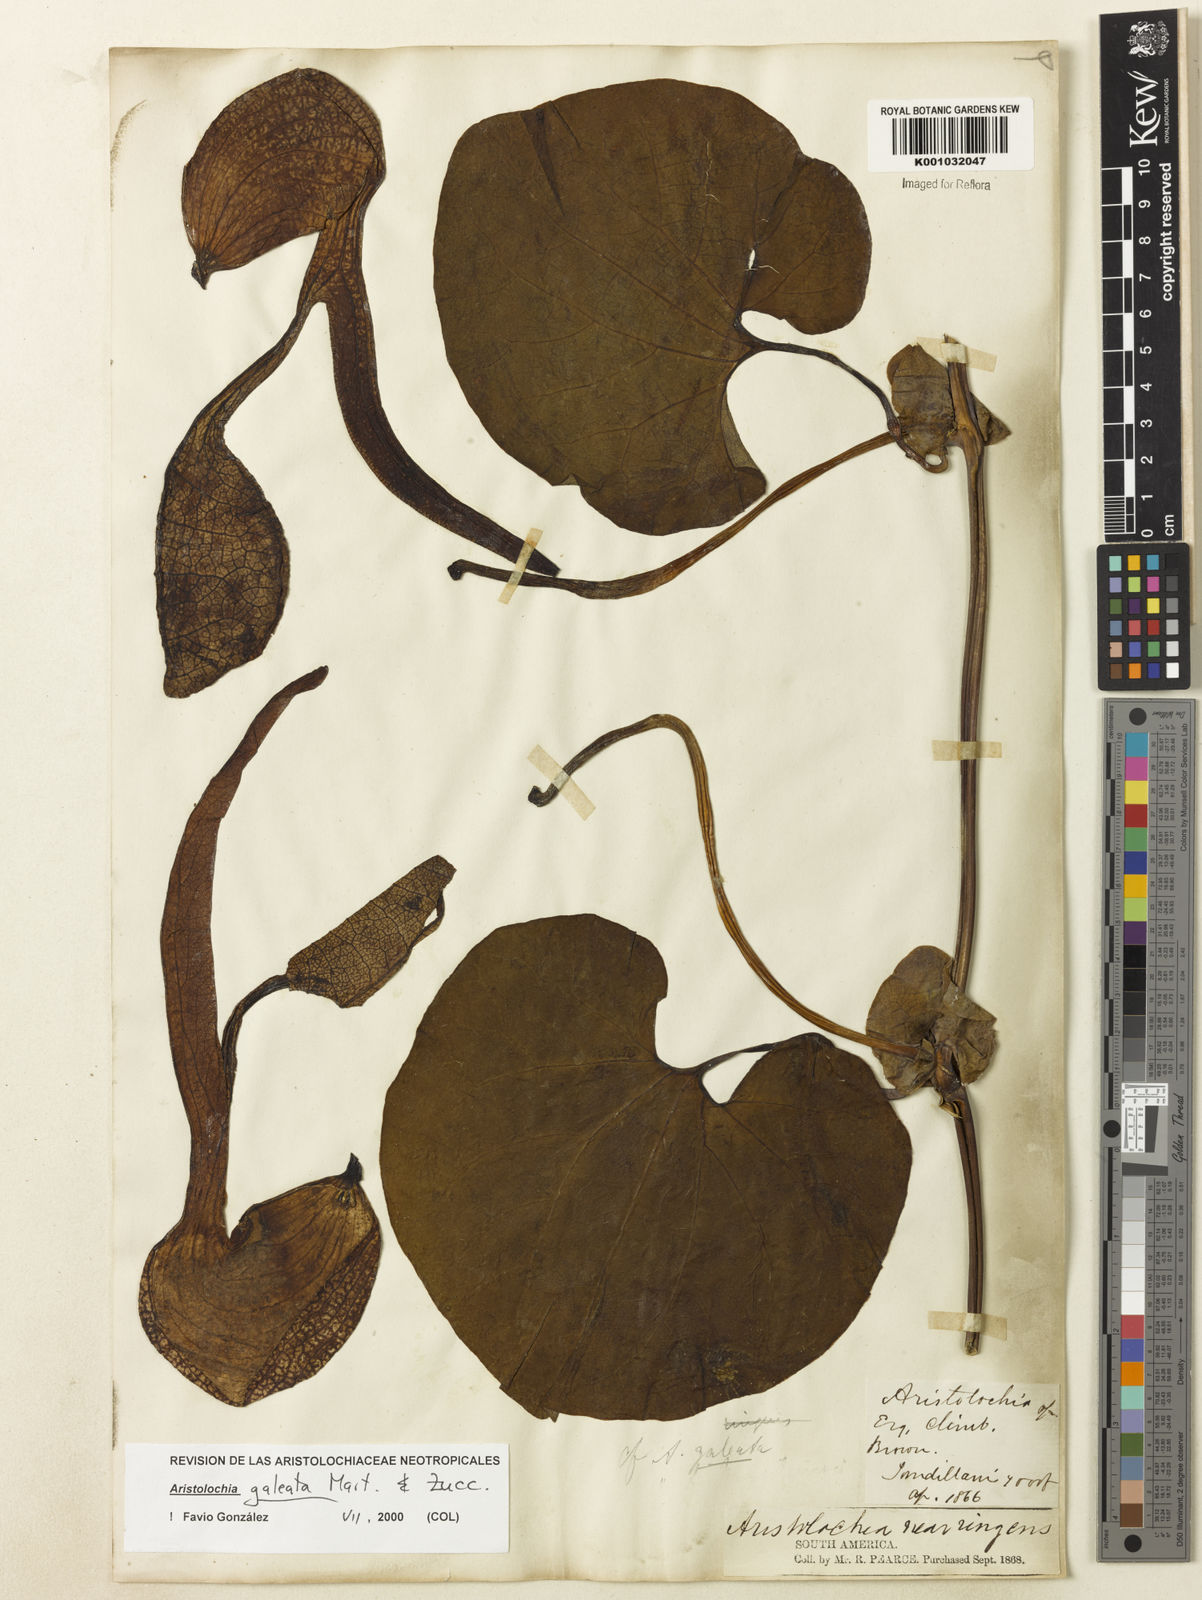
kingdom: Plantae
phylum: Tracheophyta
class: Magnoliopsida
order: Piperales
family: Aristolochiaceae
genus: Aristolochia
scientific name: Aristolochia
